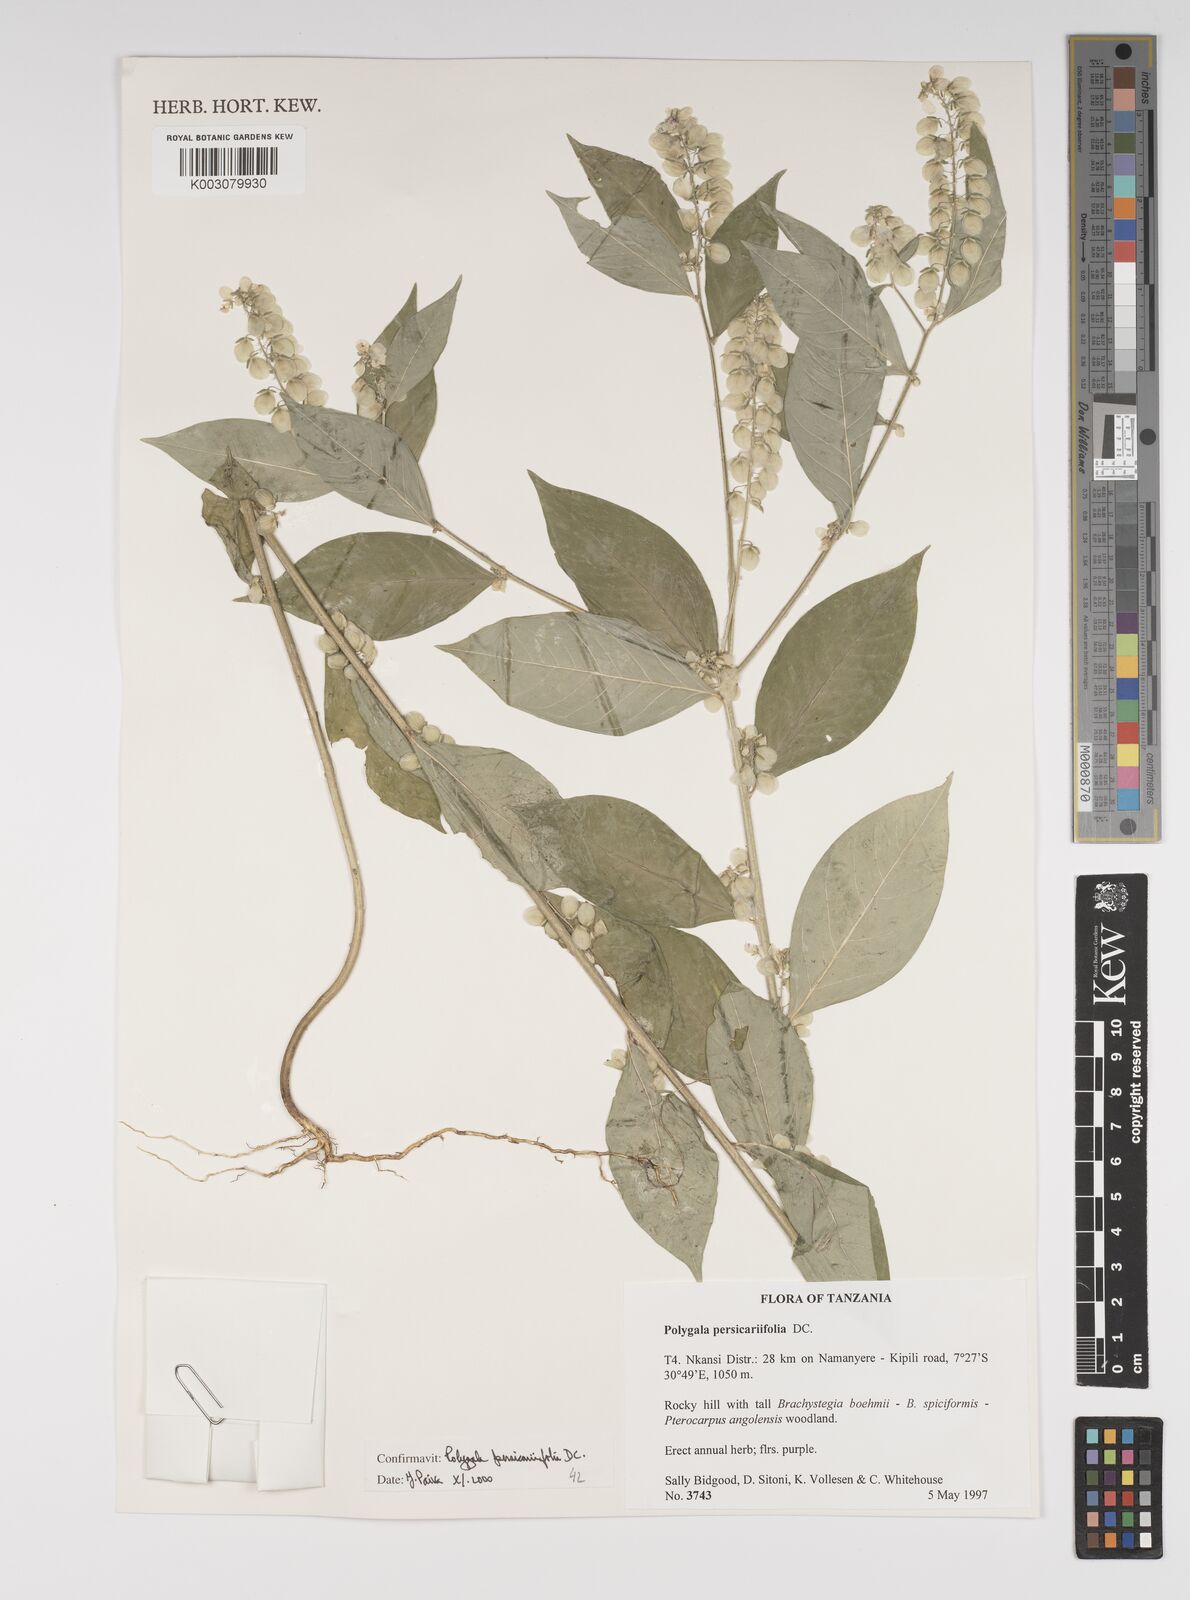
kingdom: Plantae
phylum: Tracheophyta
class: Magnoliopsida
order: Fabales
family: Polygalaceae
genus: Polygala
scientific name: Polygala persicariifolia
